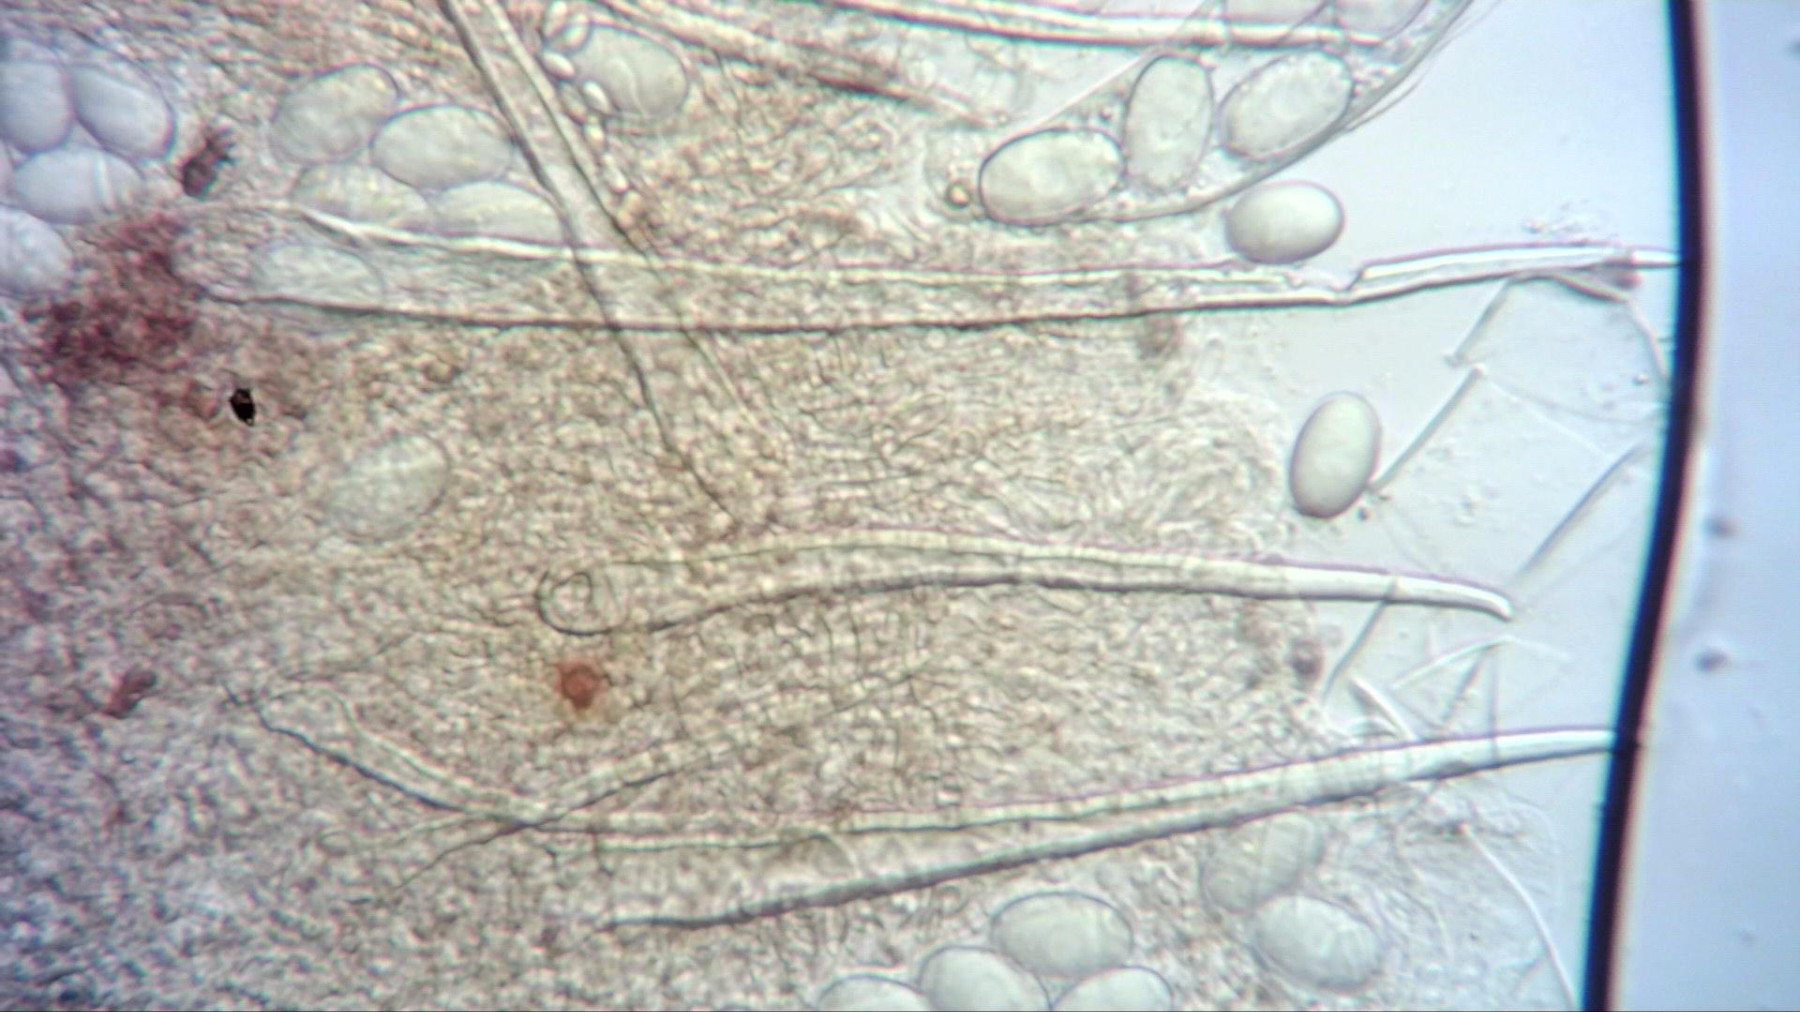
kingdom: Fungi
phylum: Ascomycota
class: Pezizomycetes
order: Pezizales
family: Ascodesmidaceae
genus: Lasiobolus
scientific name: Lasiobolus cuniculi
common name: toradet øjebæger
